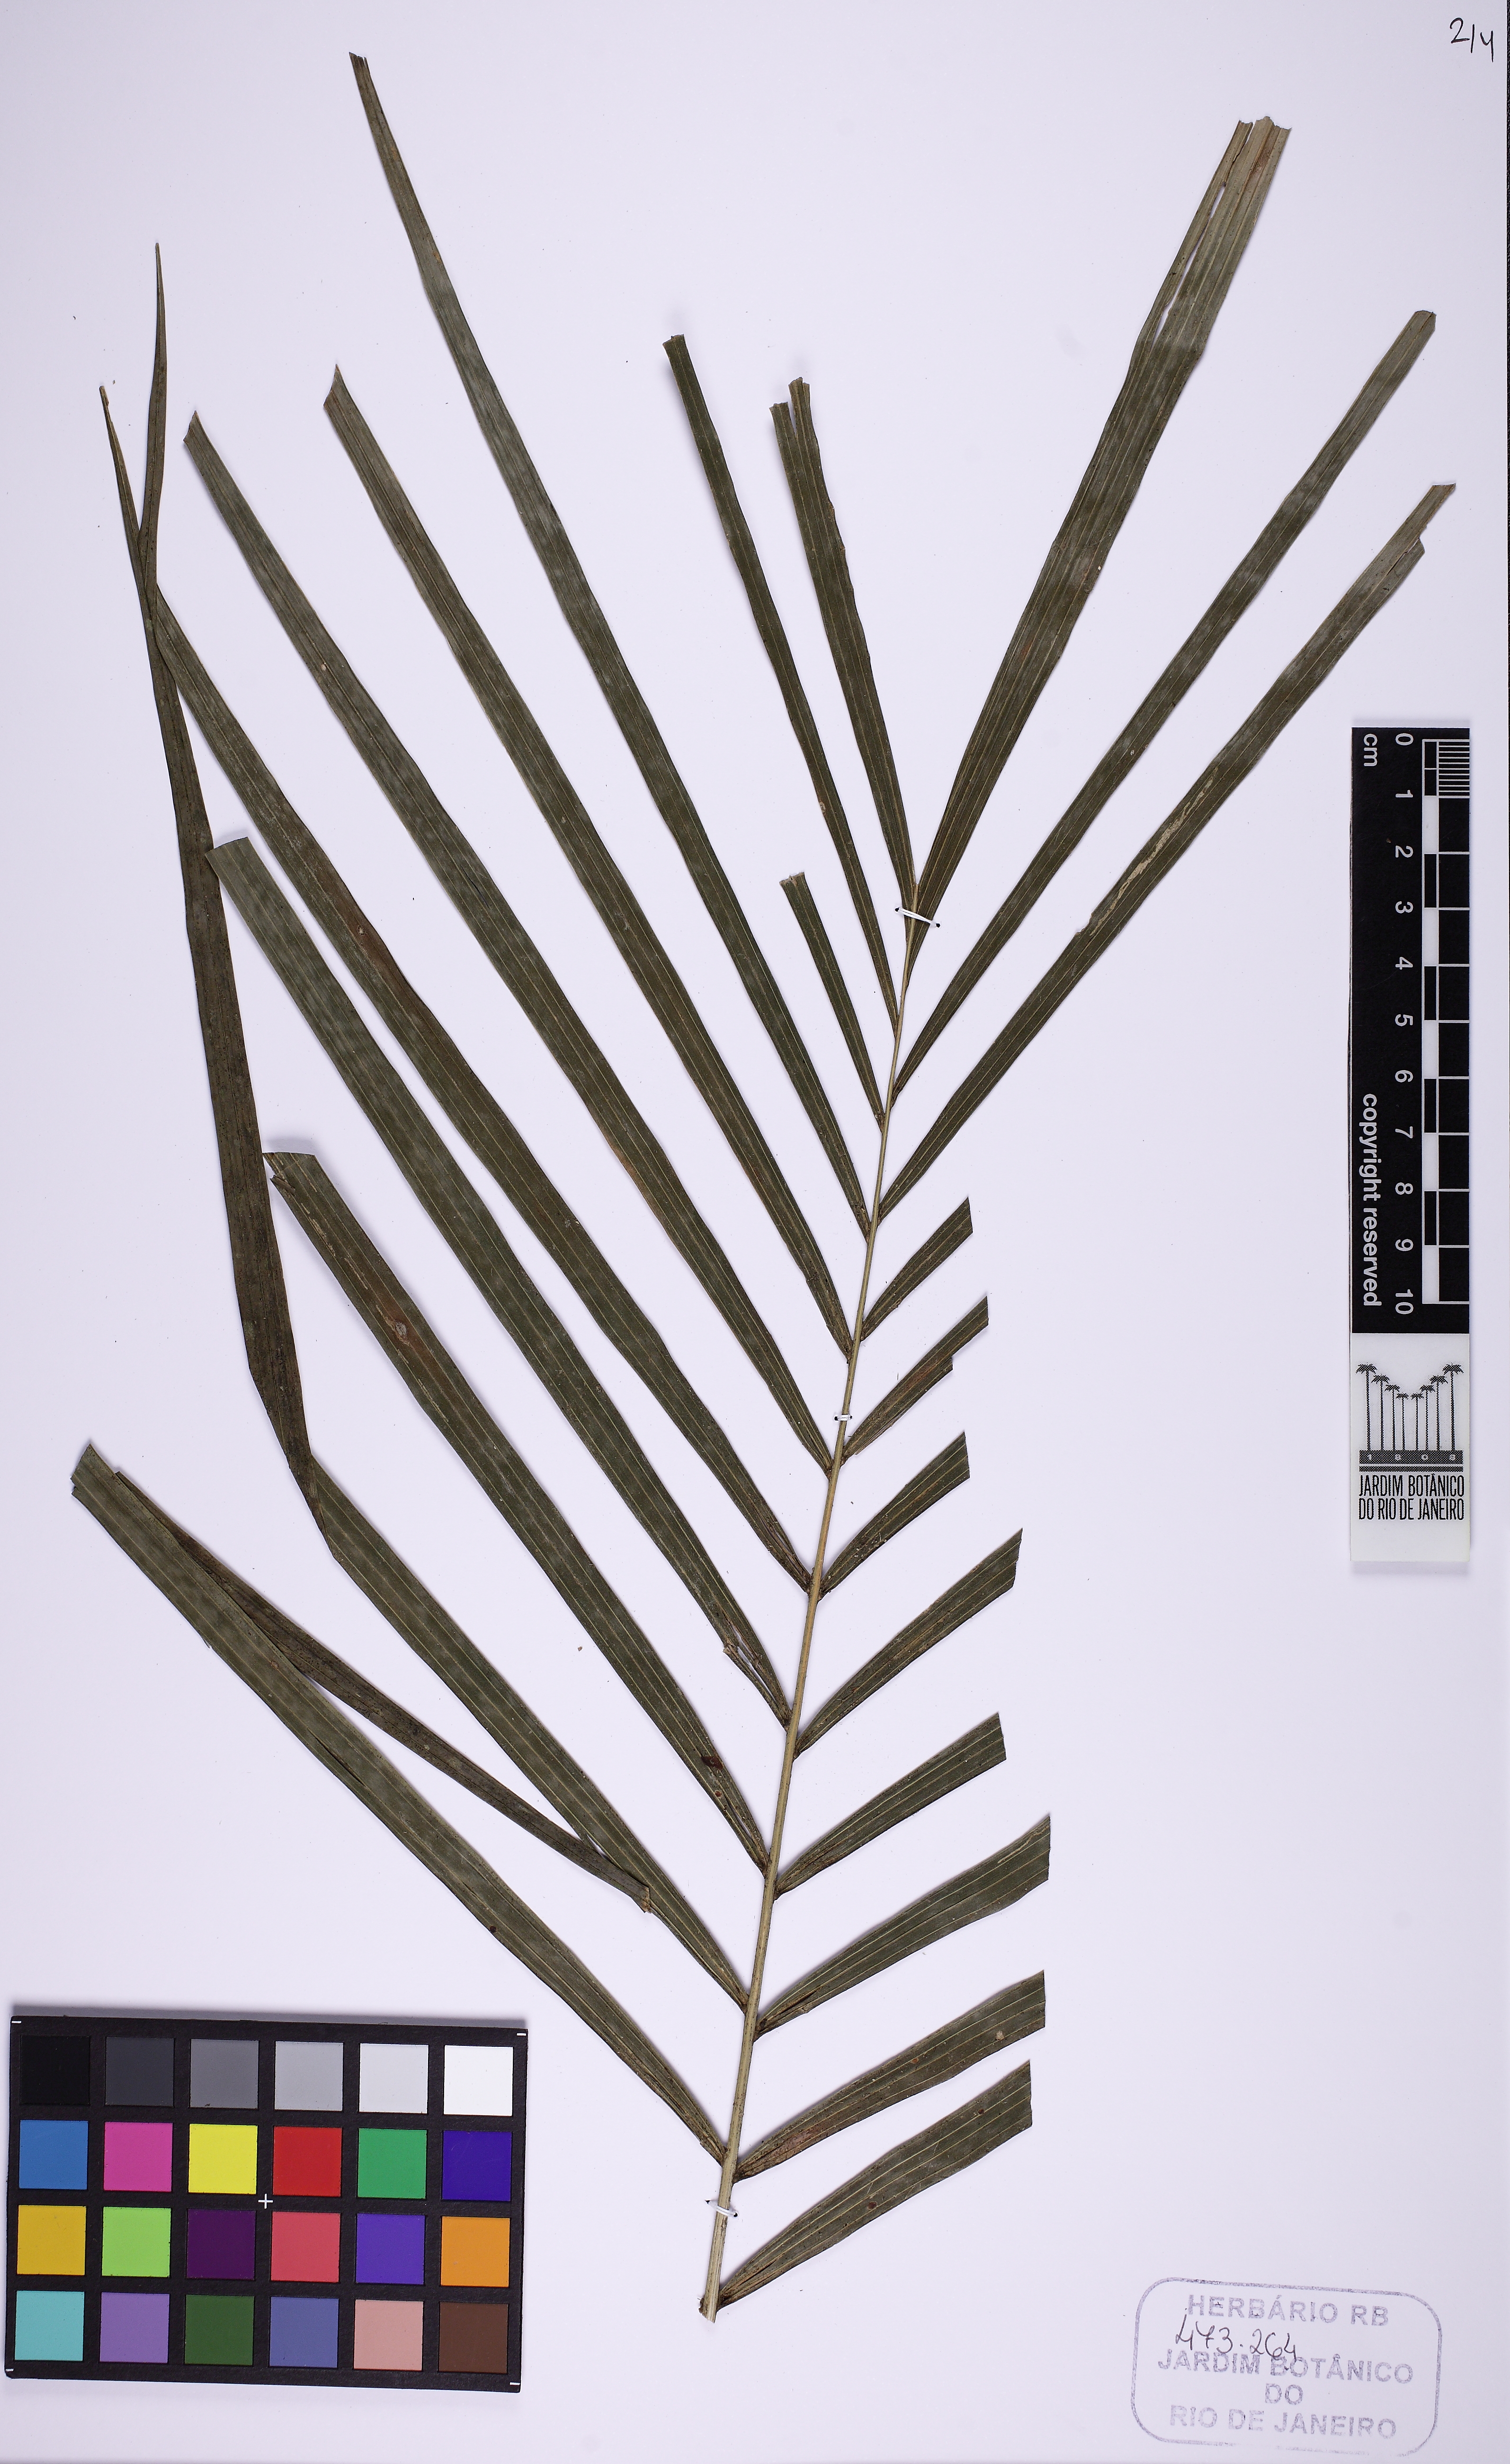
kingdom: Plantae
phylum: Tracheophyta
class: Liliopsida
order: Arecales
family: Arecaceae
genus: Geonoma
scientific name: Geonoma schottiana
